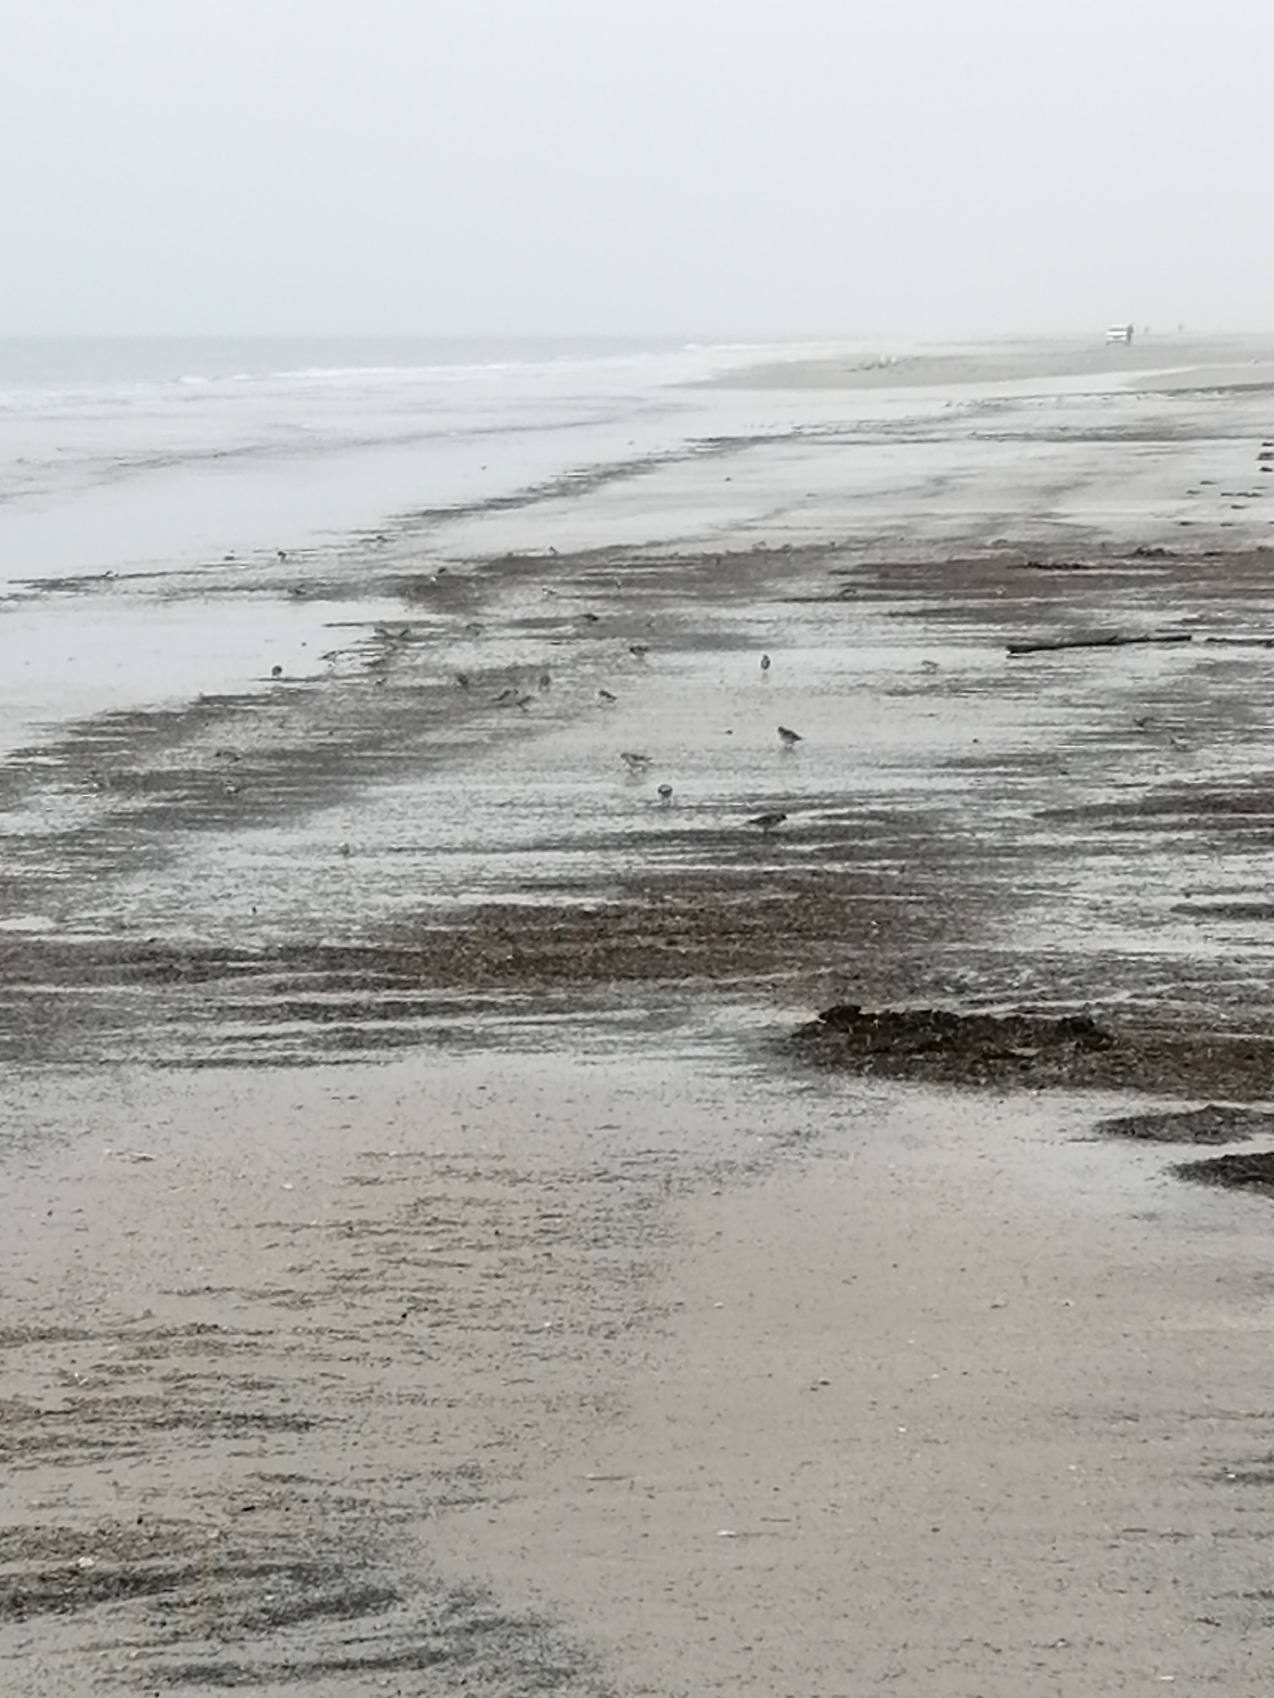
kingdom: Animalia
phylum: Chordata
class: Aves
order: Charadriiformes
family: Scolopacidae
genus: Calidris
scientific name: Calidris alba
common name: Sandløber
